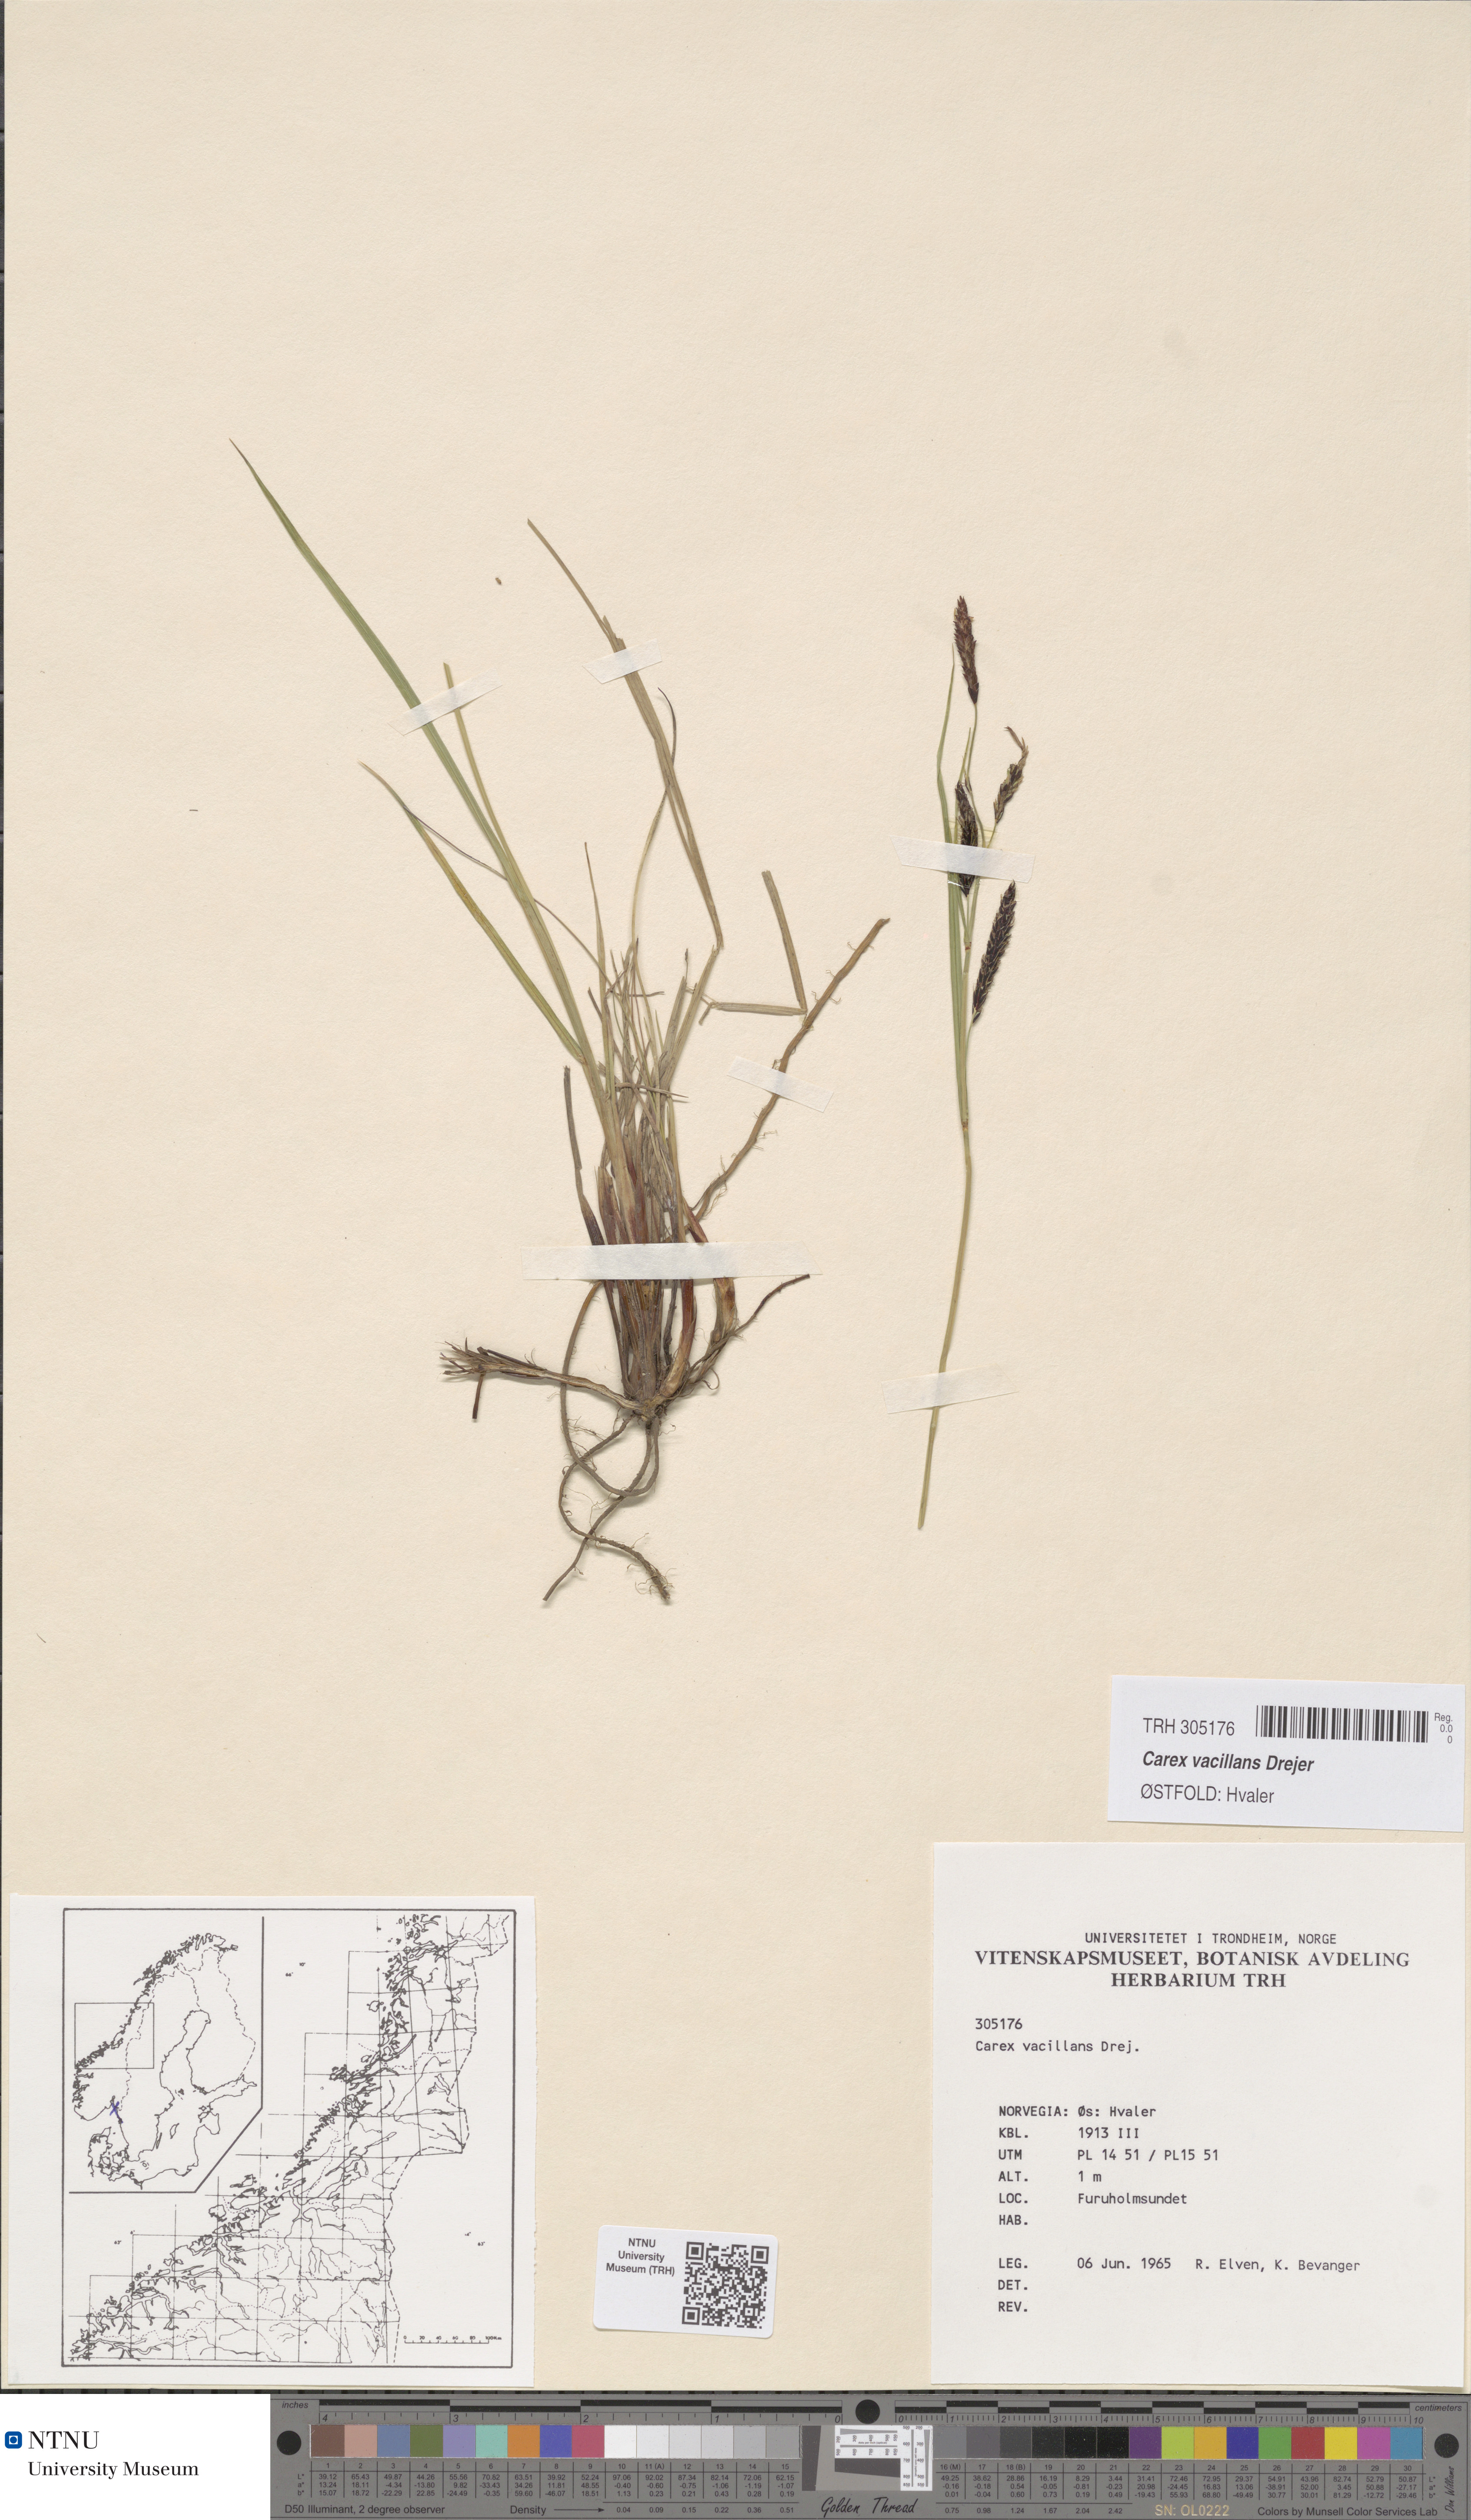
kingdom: Plantae
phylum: Tracheophyta
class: Liliopsida
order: Poales
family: Cyperaceae
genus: Carex
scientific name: Carex vacillans
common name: Sedge
